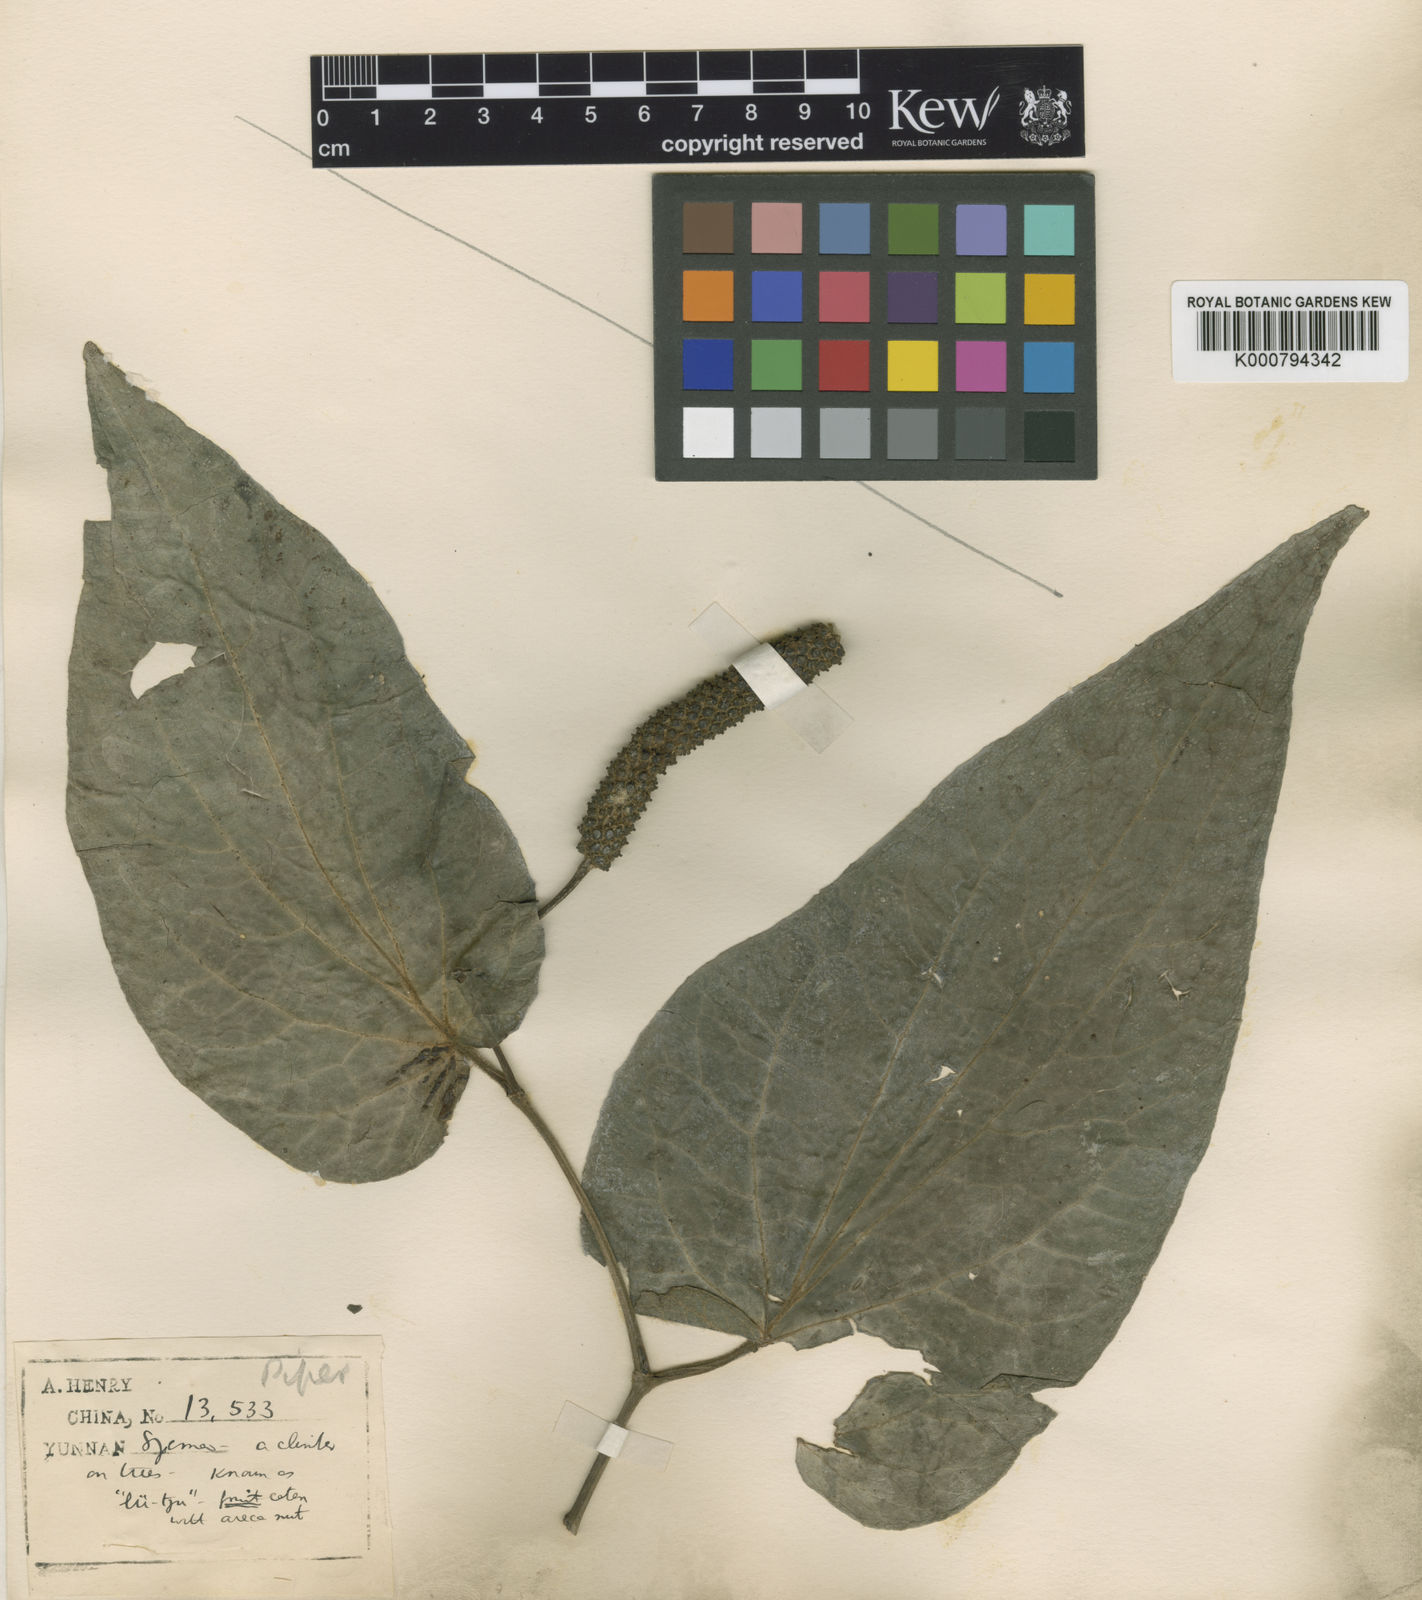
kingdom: Plantae
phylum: Tracheophyta
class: Magnoliopsida
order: Piperales
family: Piperaceae
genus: Piper
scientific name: Piper submultinerve
